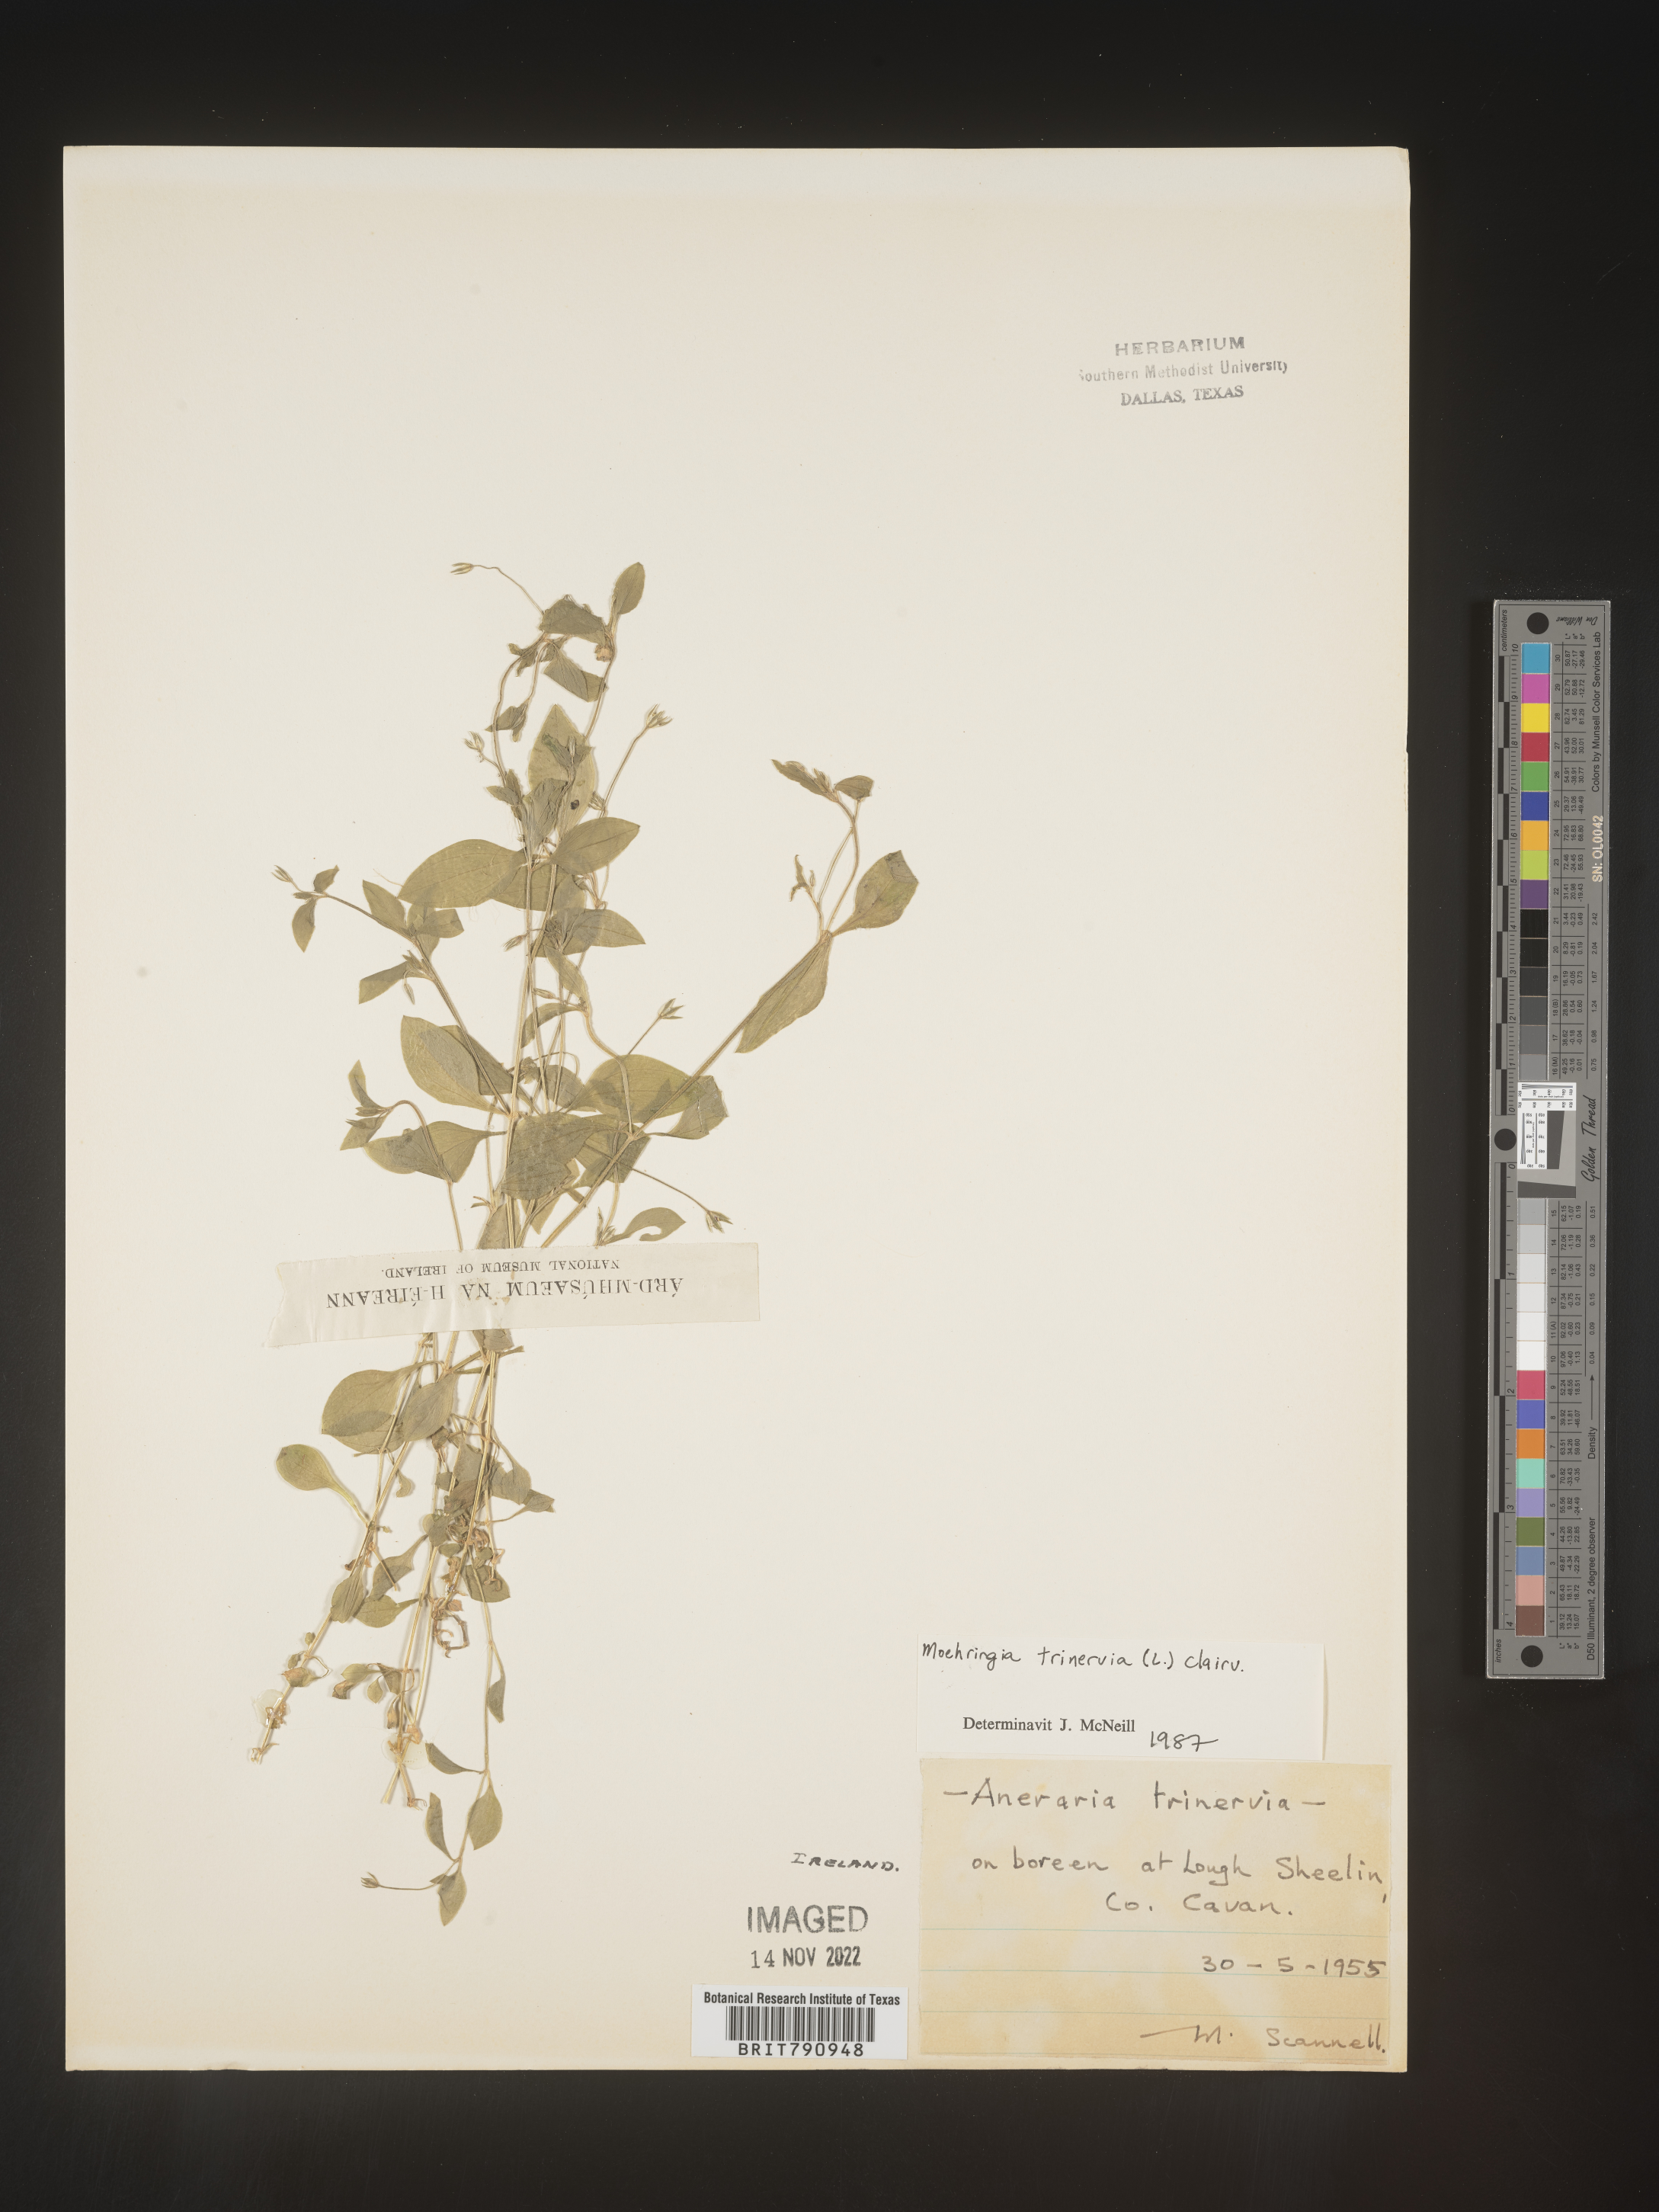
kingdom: Plantae
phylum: Tracheophyta
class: Magnoliopsida
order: Caryophyllales
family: Caryophyllaceae
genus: Moehringia
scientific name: Moehringia
